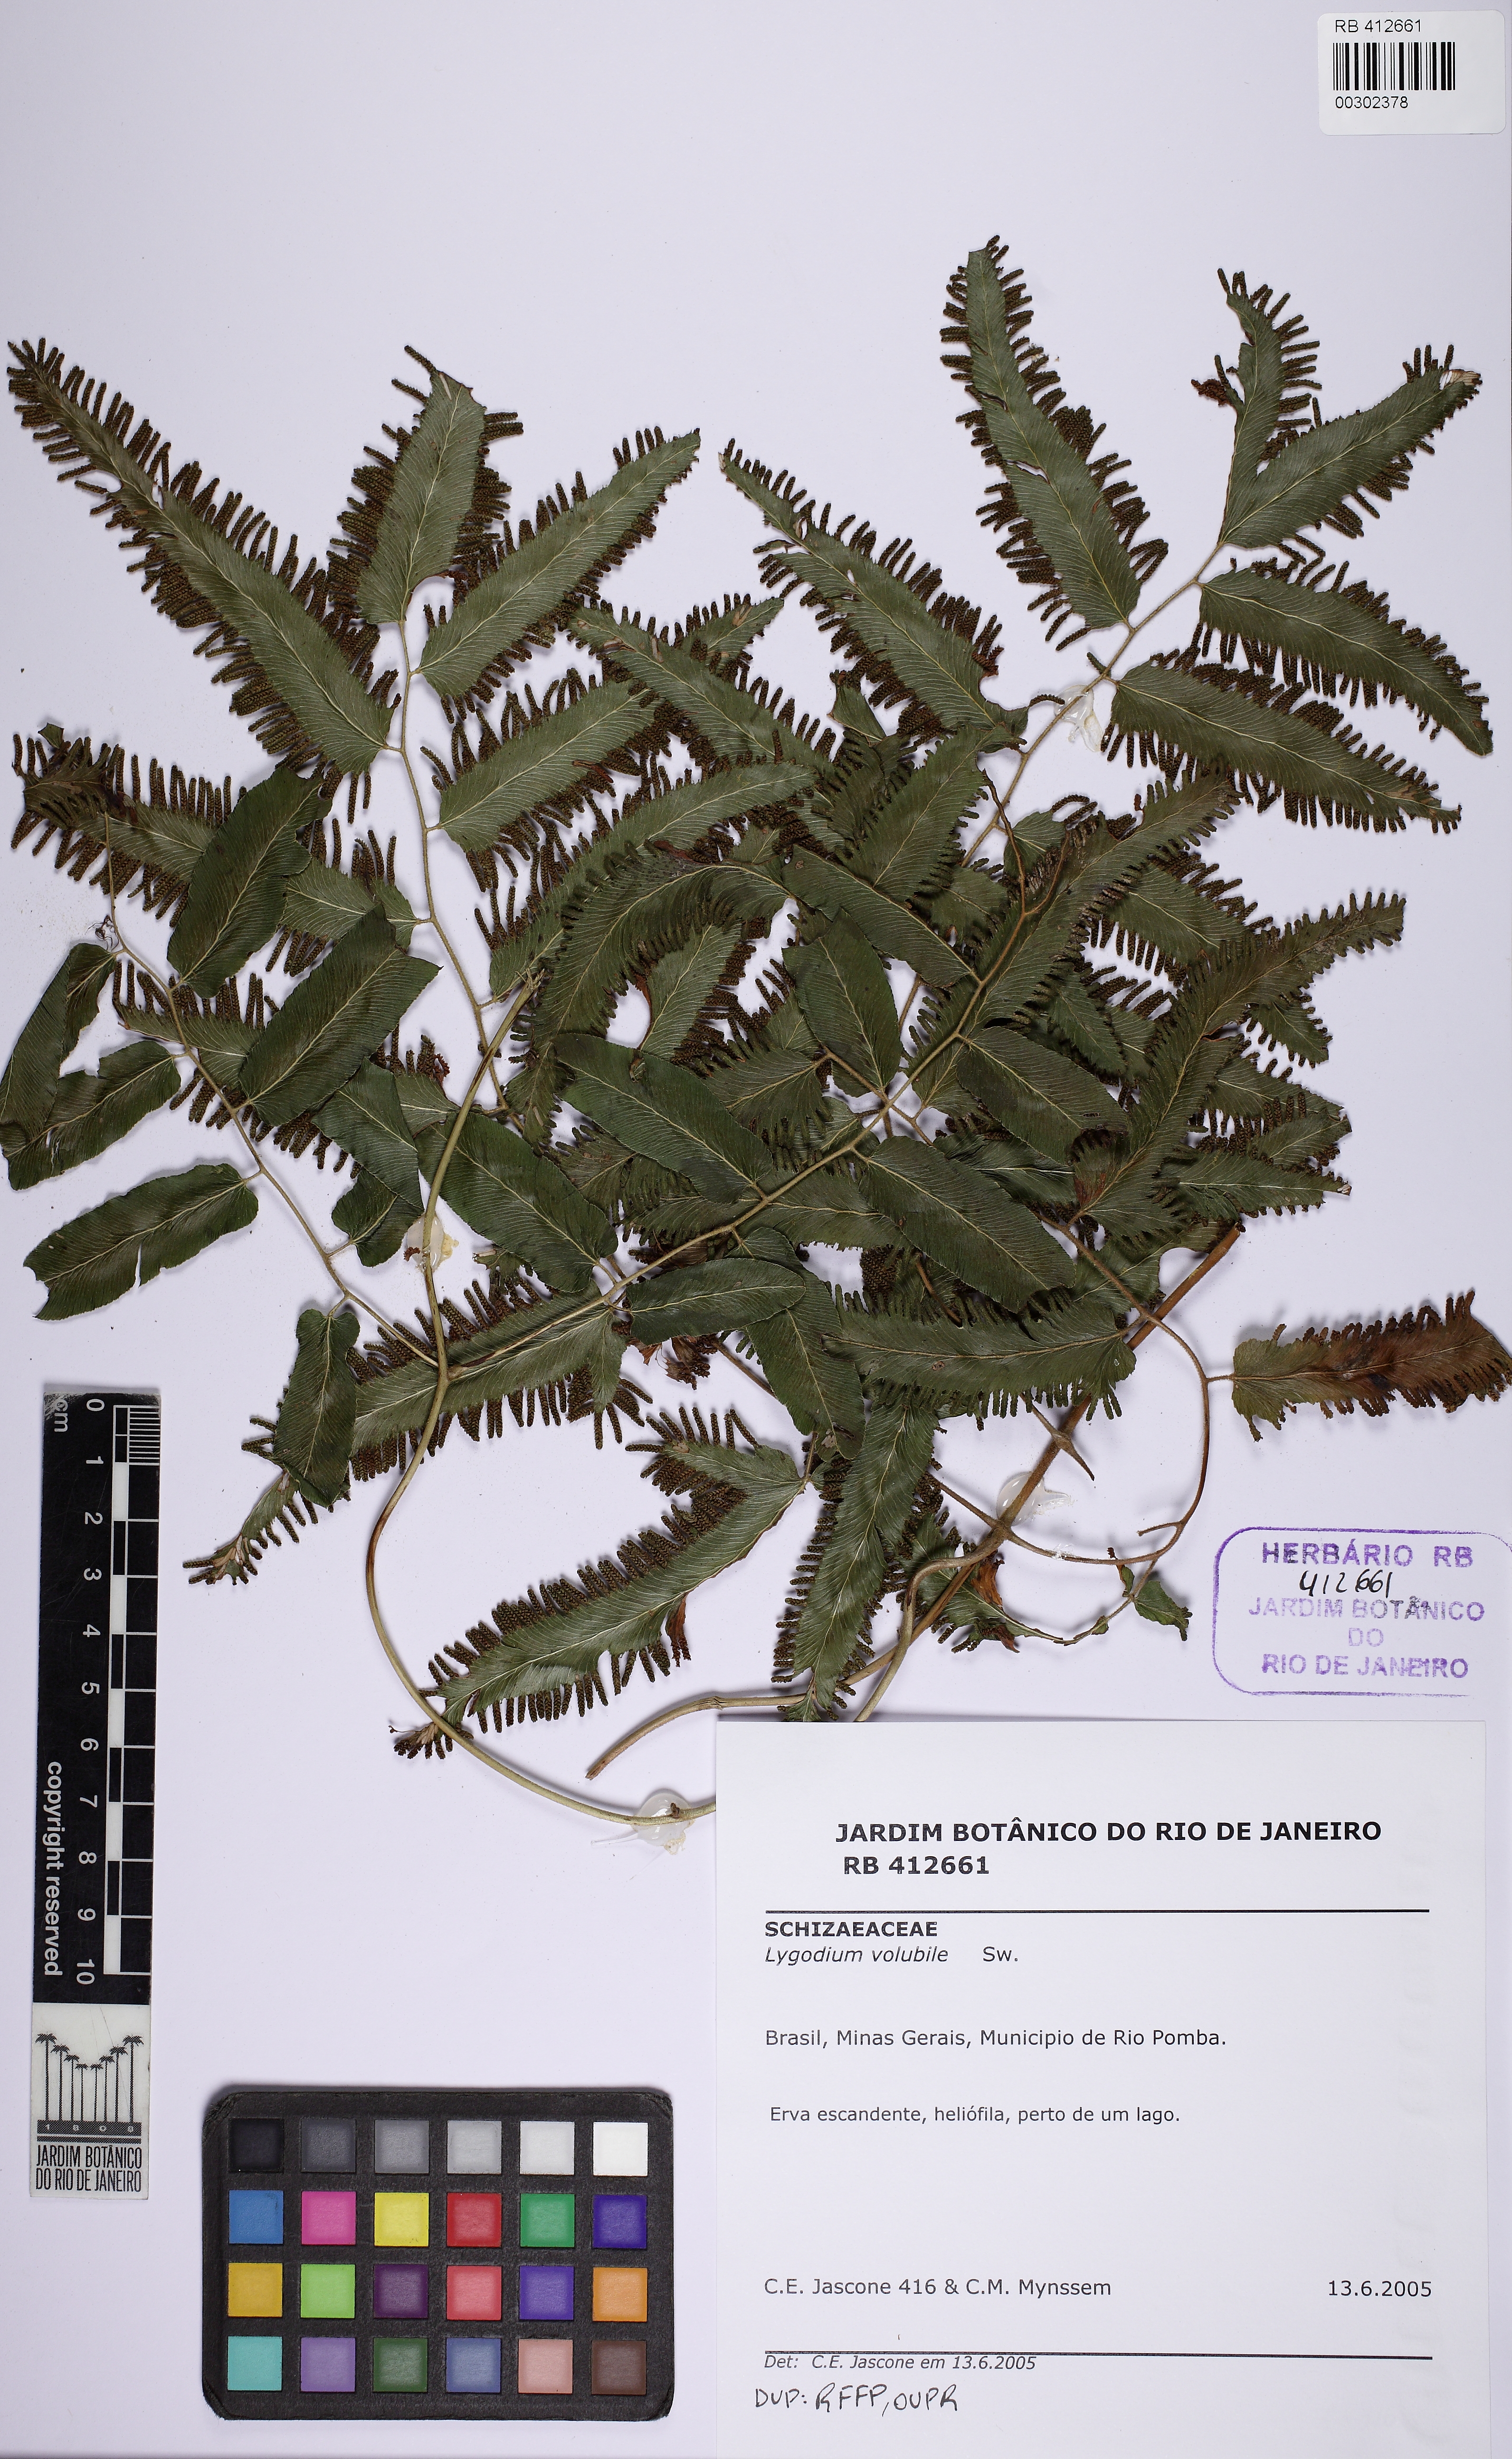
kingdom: Plantae
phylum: Tracheophyta
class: Polypodiopsida
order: Schizaeales
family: Lygodiaceae
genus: Lygodium
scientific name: Lygodium volubile
